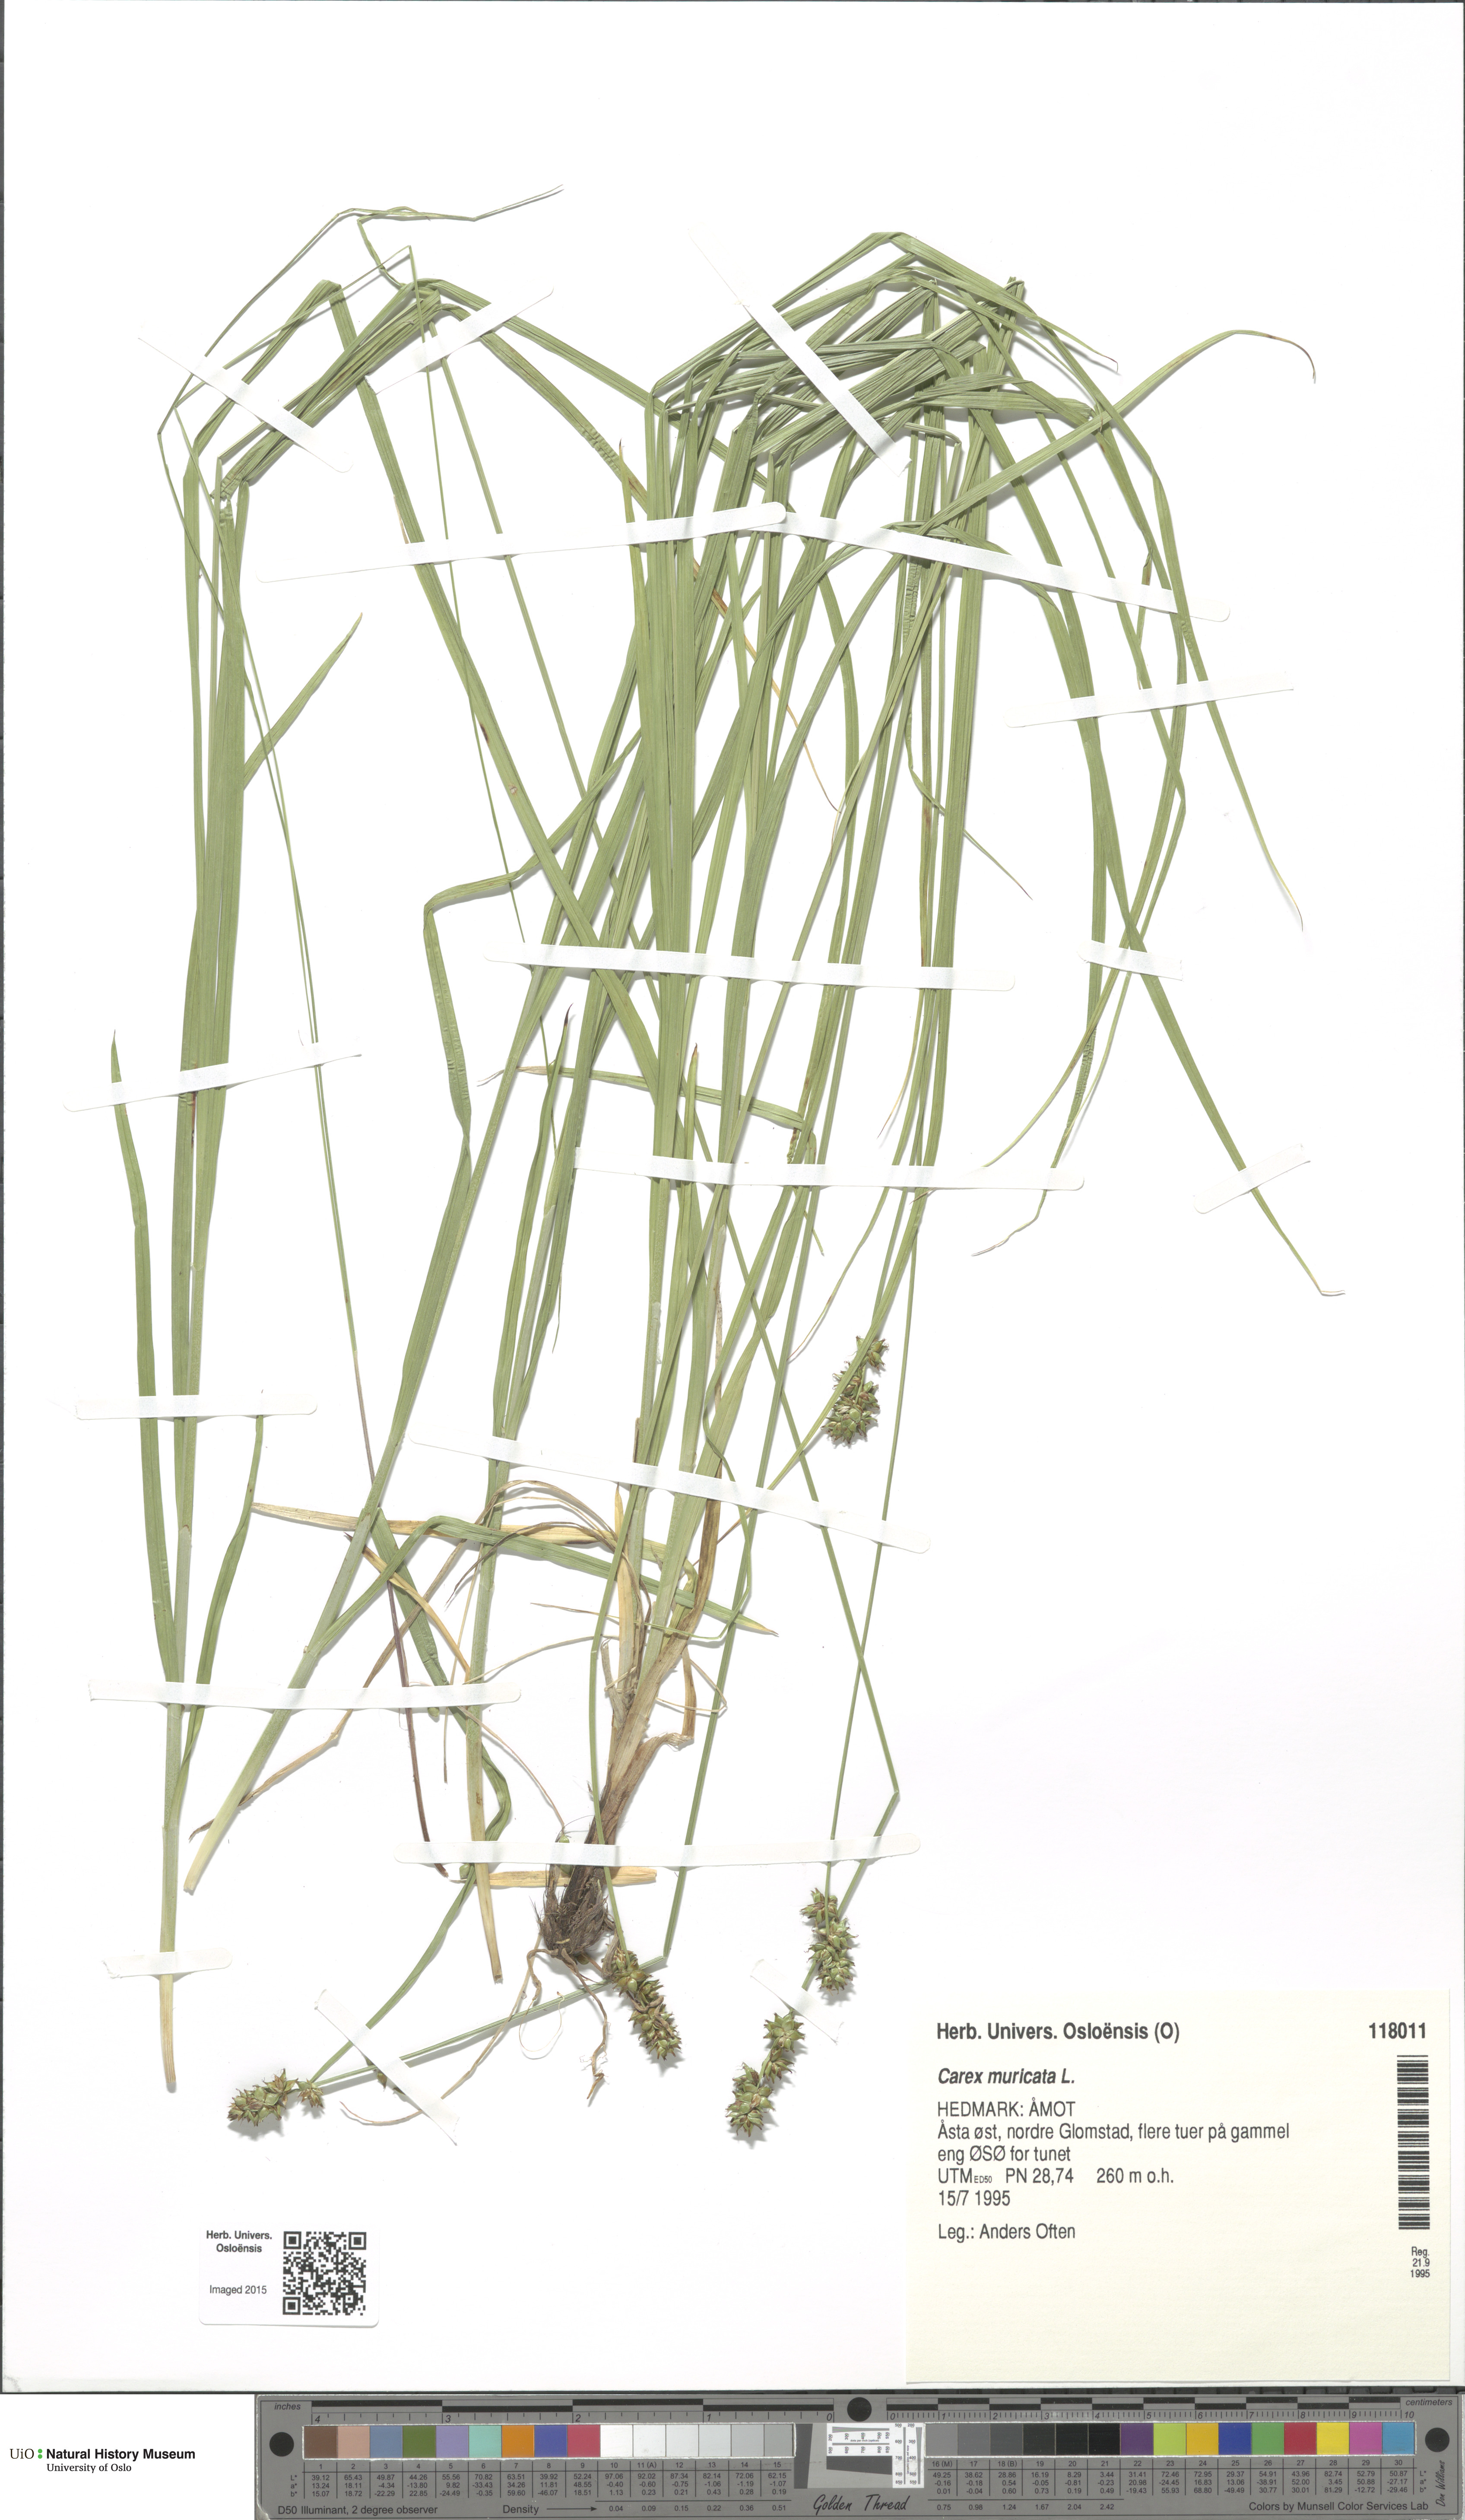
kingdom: Plantae
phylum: Tracheophyta
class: Liliopsida
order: Poales
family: Cyperaceae
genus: Carex
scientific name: Carex muricata
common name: Rough sedge
